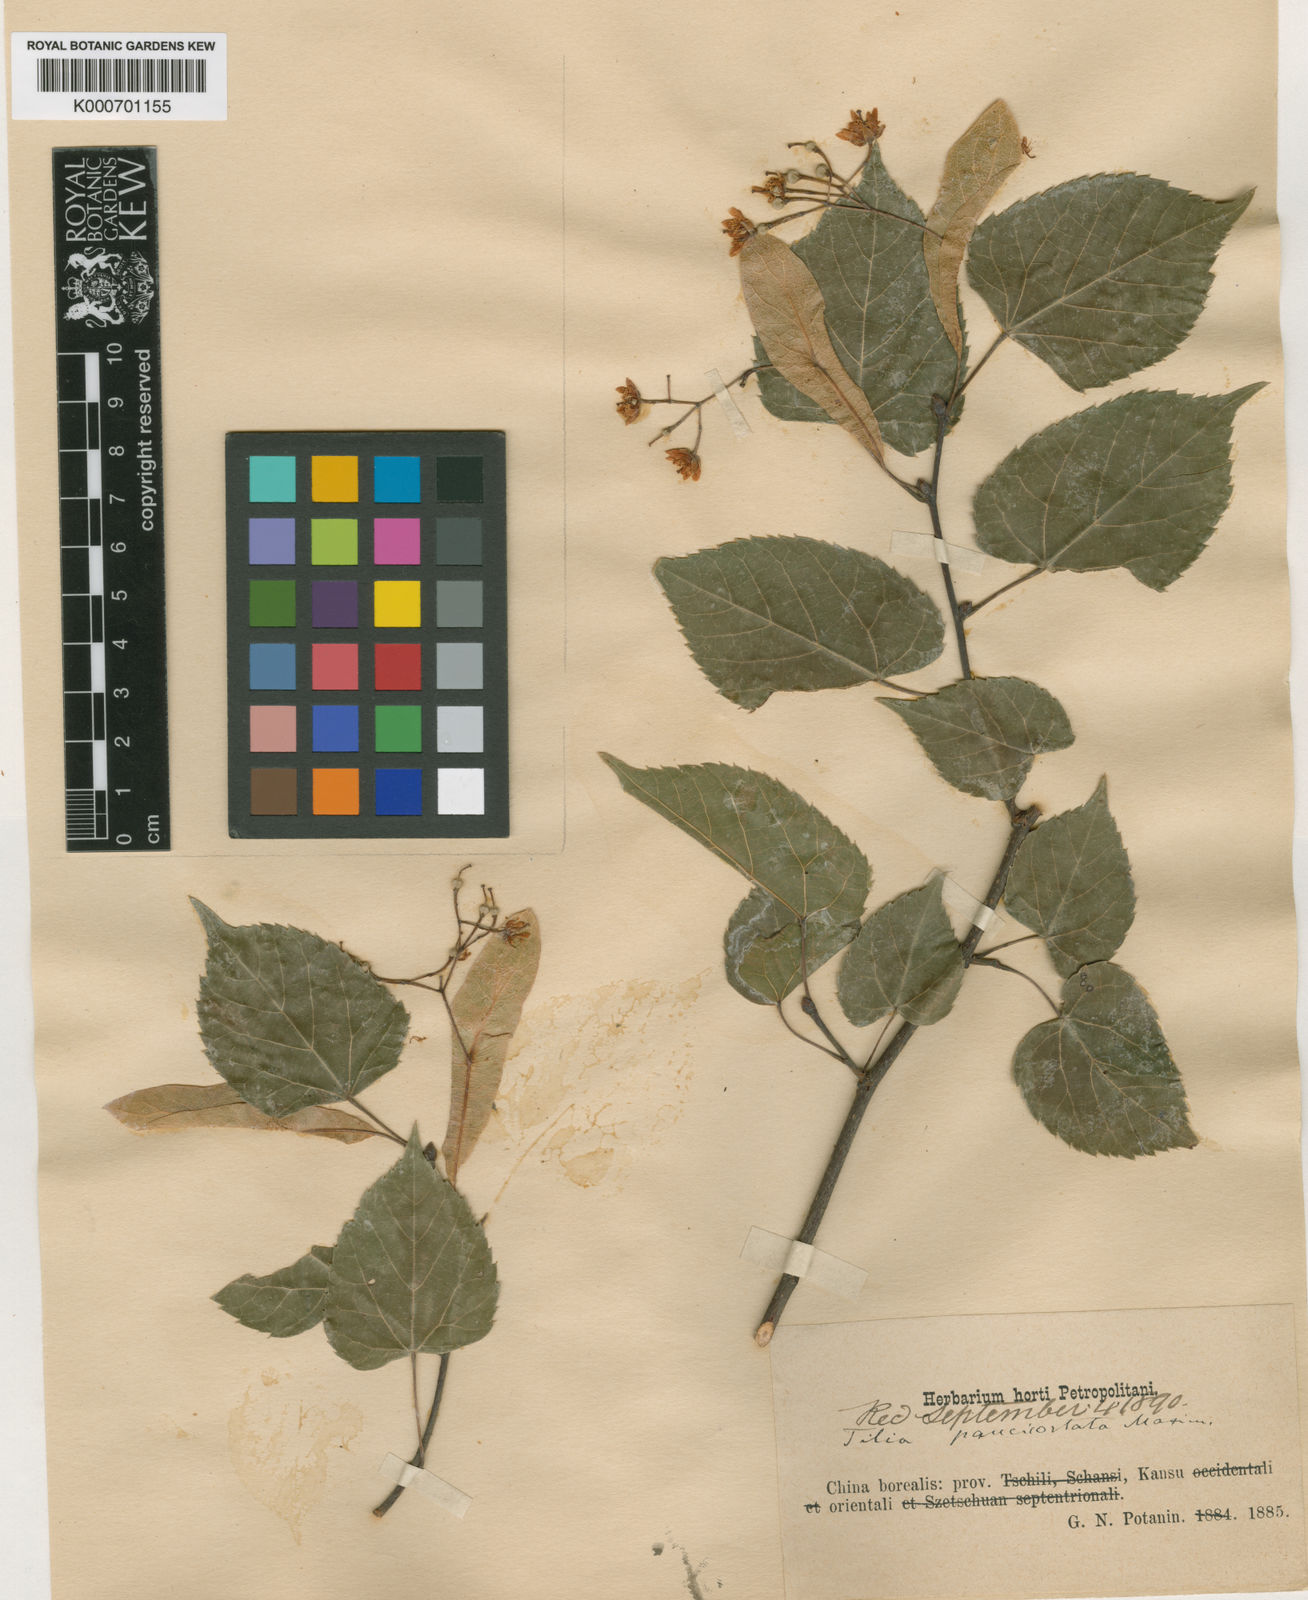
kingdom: Plantae
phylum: Tracheophyta
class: Magnoliopsida
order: Malvales
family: Malvaceae
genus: Tilia
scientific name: Tilia paucicostata
